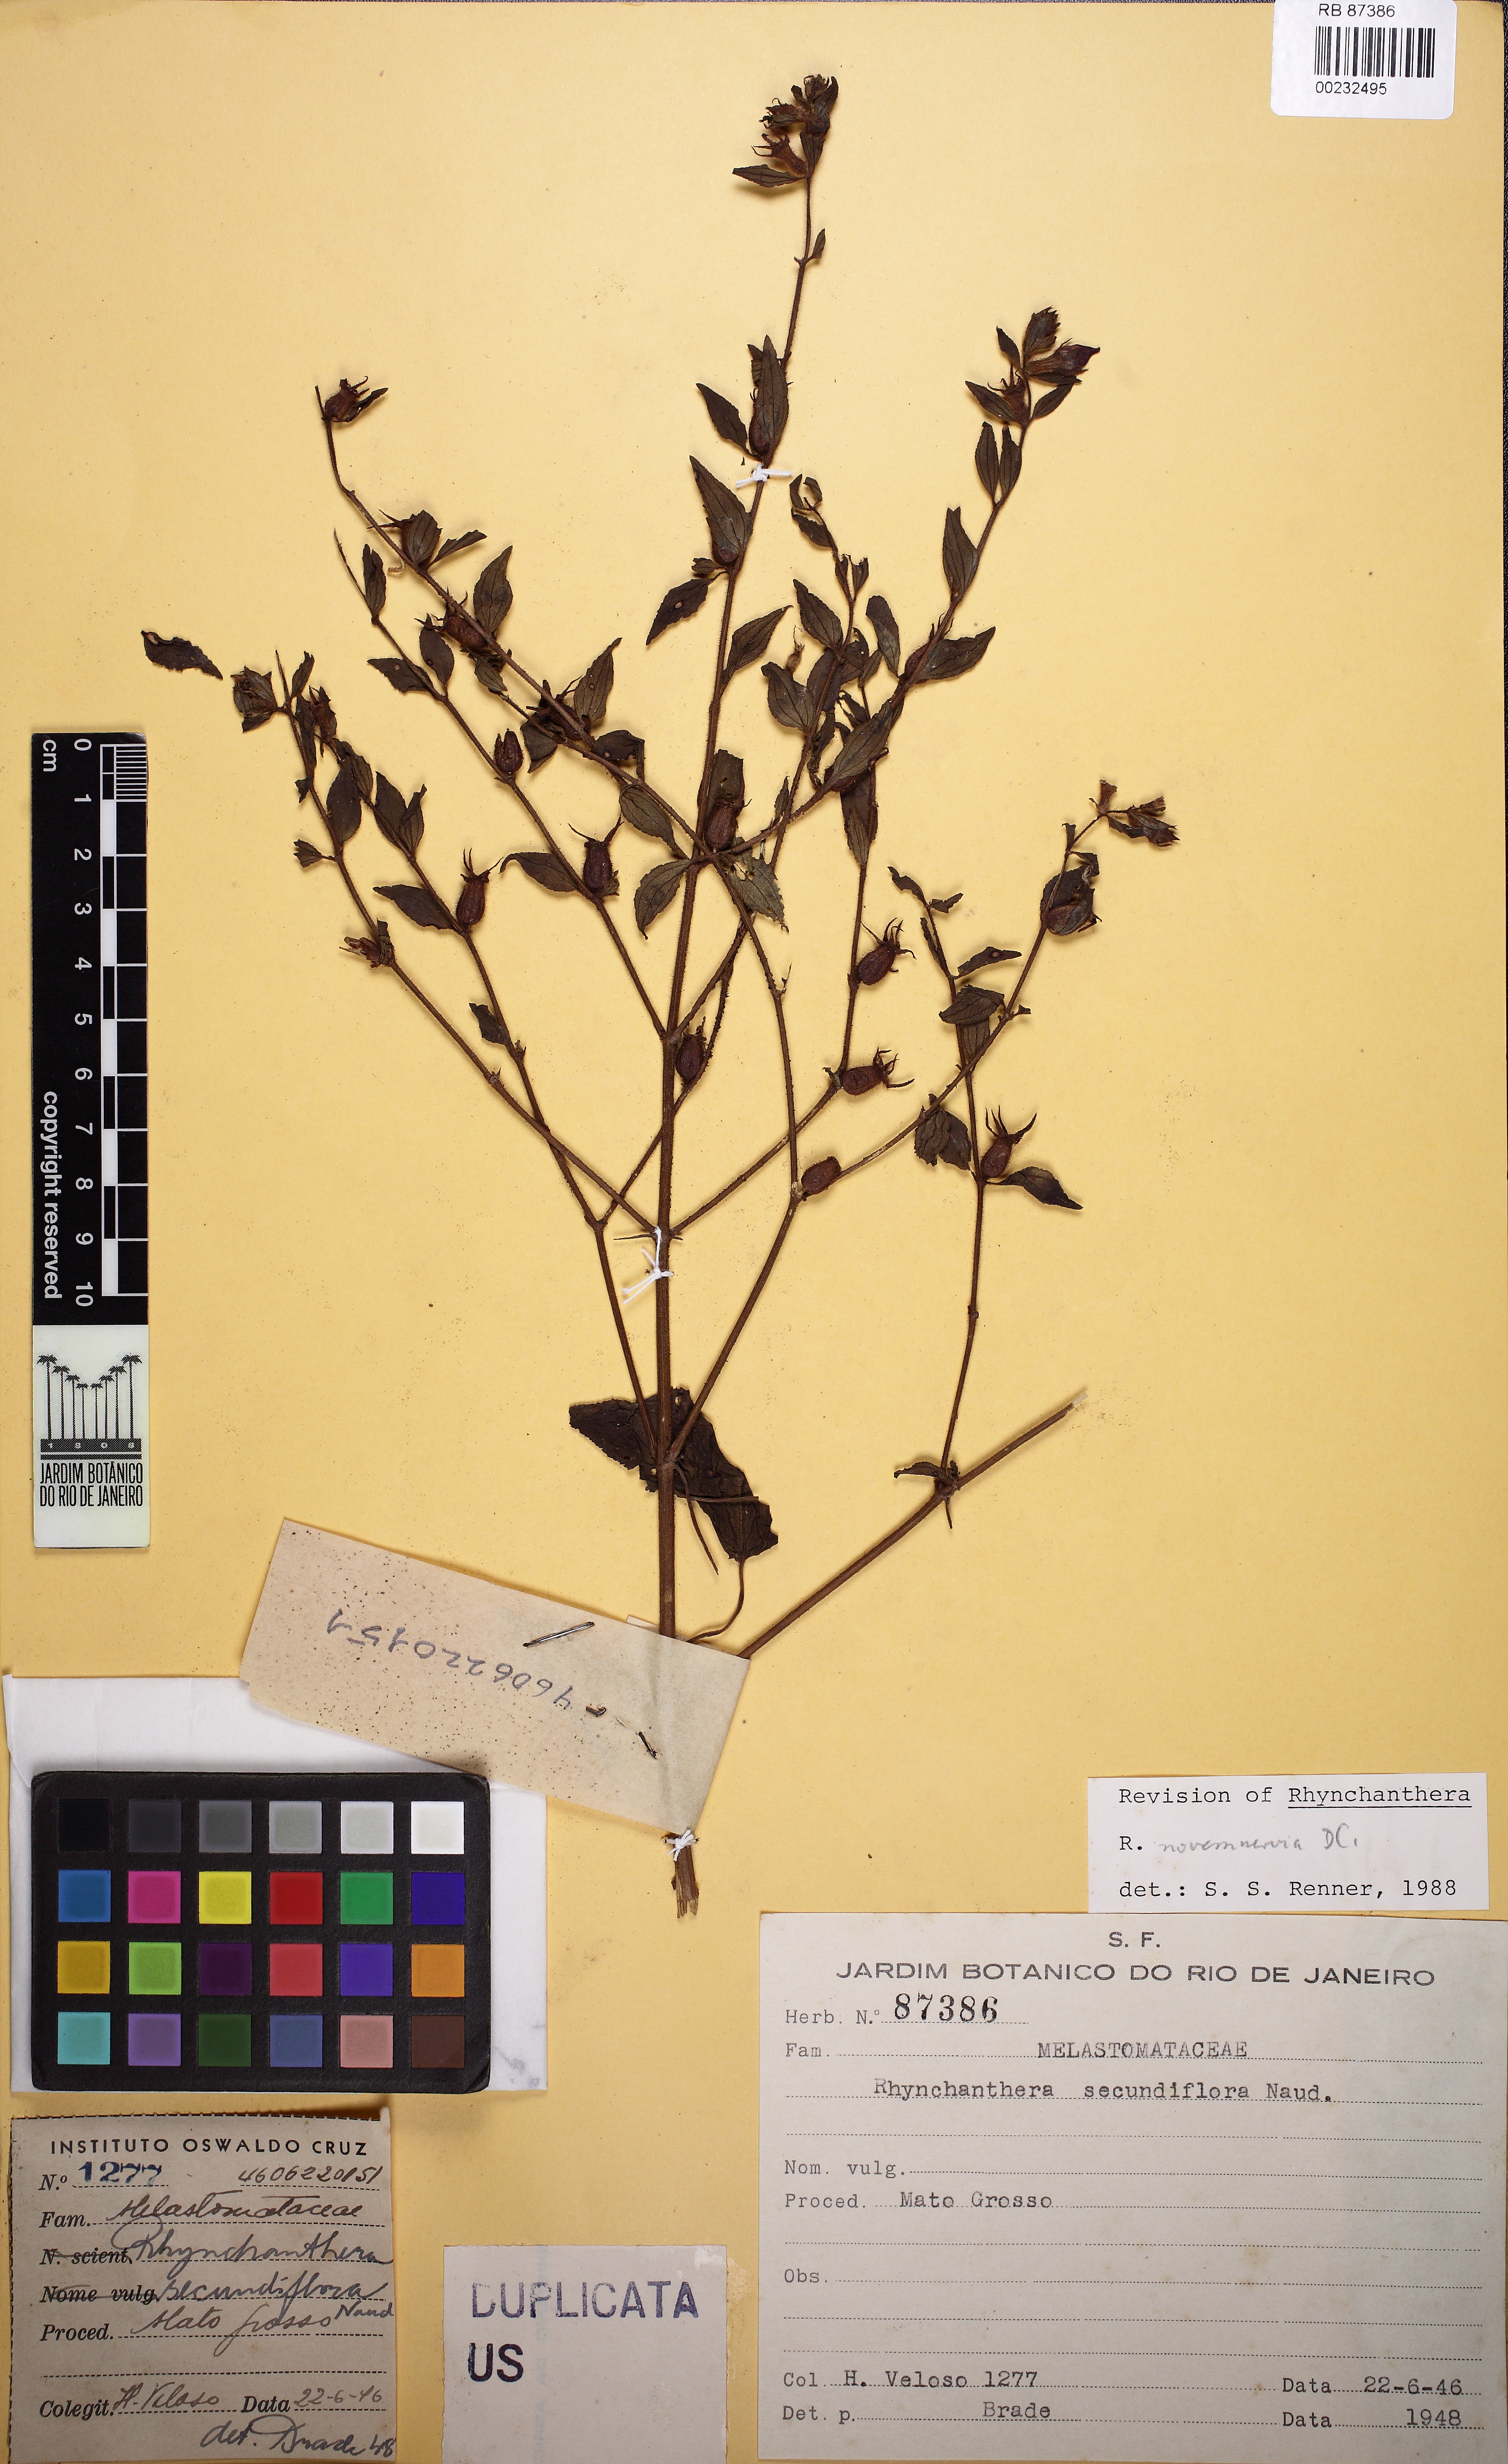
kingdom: Plantae
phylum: Tracheophyta
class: Magnoliopsida
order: Myrtales
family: Melastomataceae
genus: Rhynchanthera
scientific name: Rhynchanthera novemnervia
